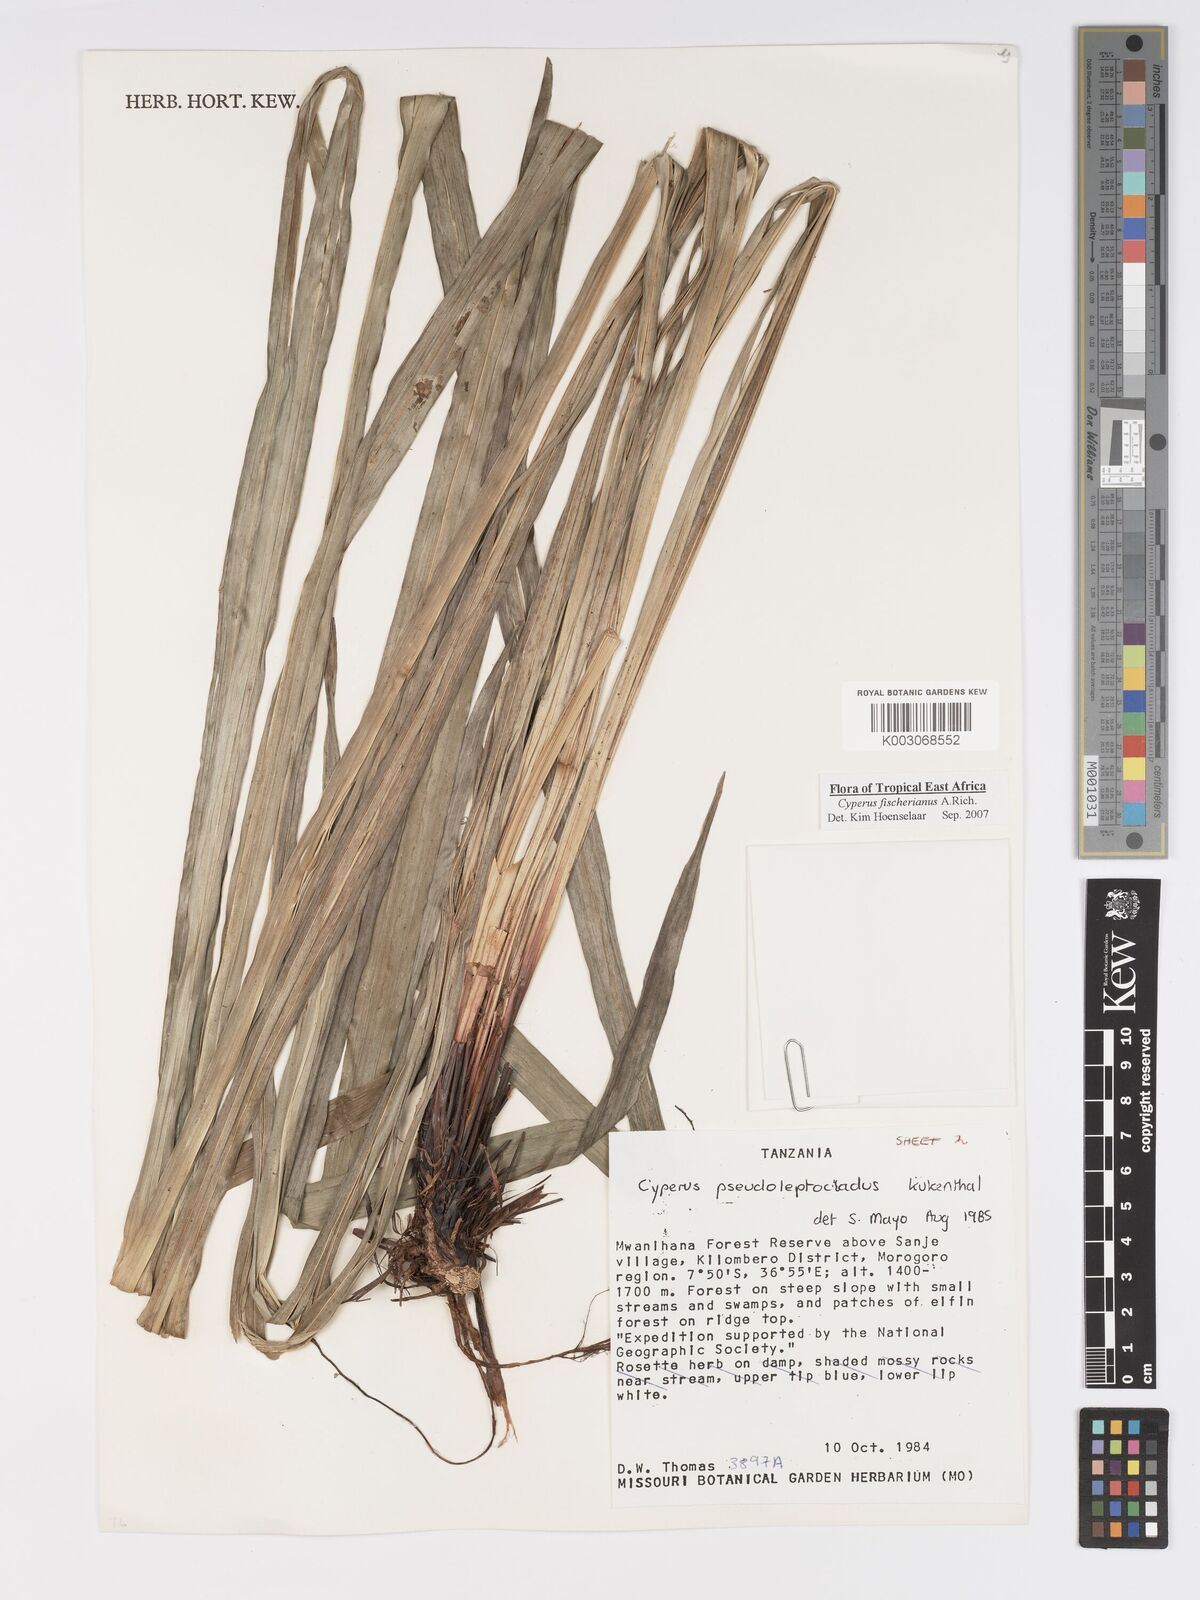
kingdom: Plantae
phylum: Tracheophyta
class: Liliopsida
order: Poales
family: Cyperaceae
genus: Cyperus
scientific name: Cyperus fischerianus
